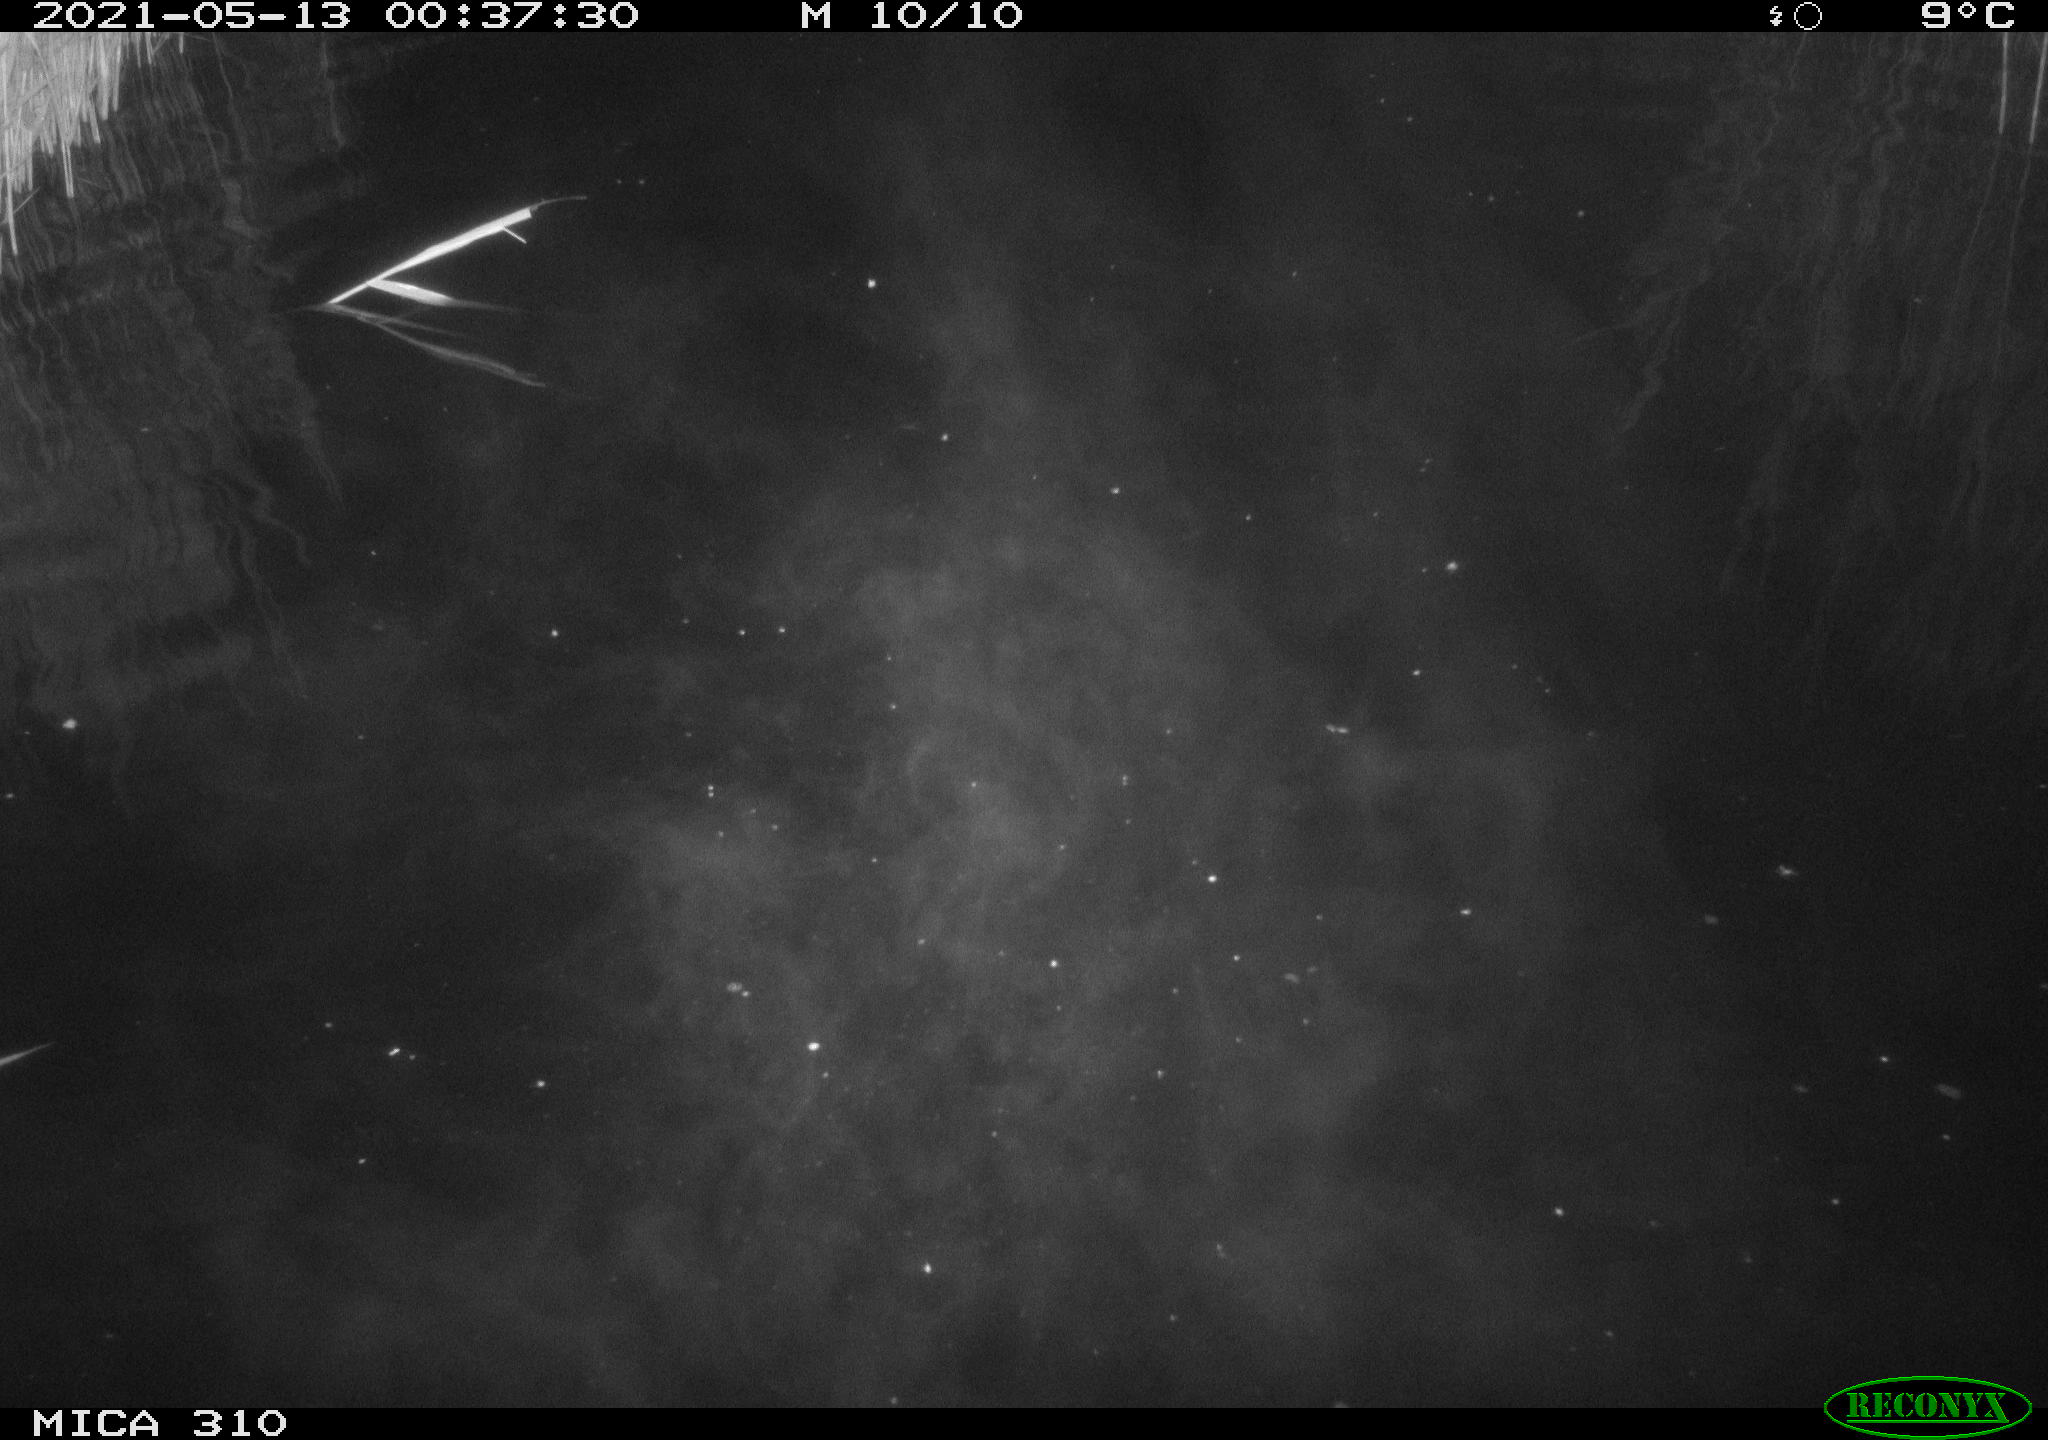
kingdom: Animalia
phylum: Chordata
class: Aves
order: Anseriformes
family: Anatidae
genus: Anas
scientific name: Anas platyrhynchos
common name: Mallard
